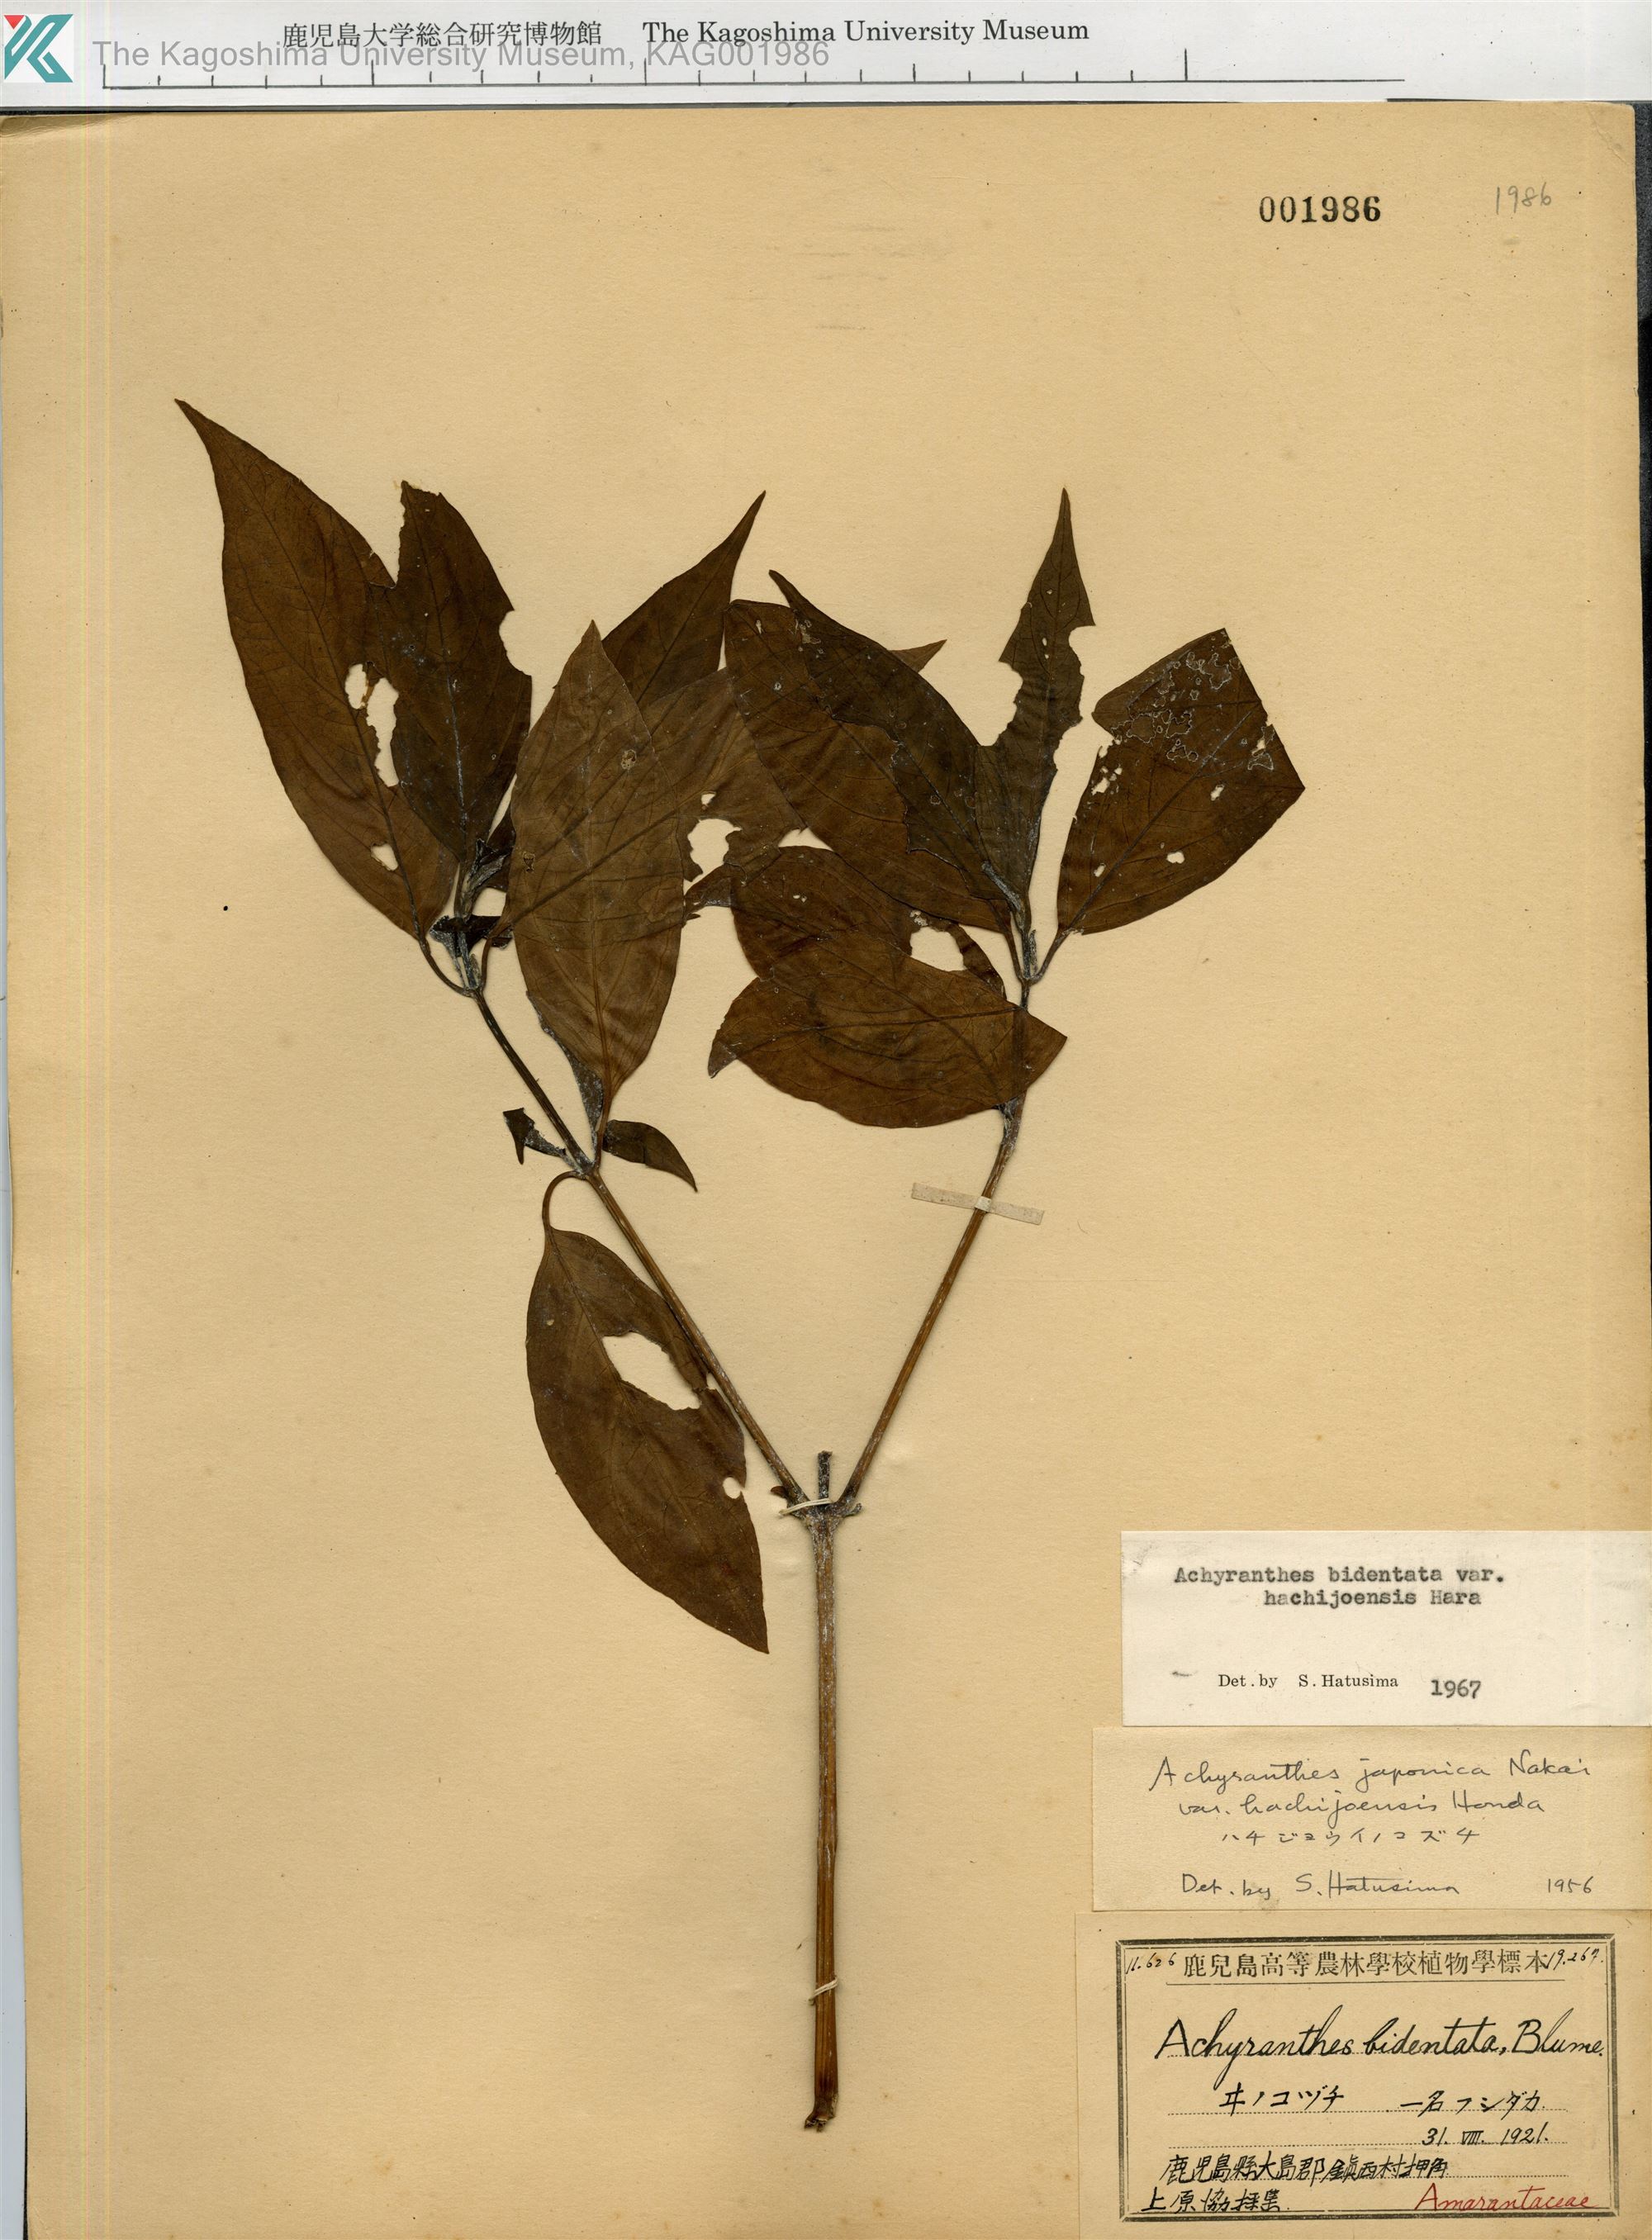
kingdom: Plantae
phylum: Tracheophyta
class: Magnoliopsida
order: Caryophyllales
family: Amaranthaceae
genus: Achyranthes
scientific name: Achyranthes bidentata
